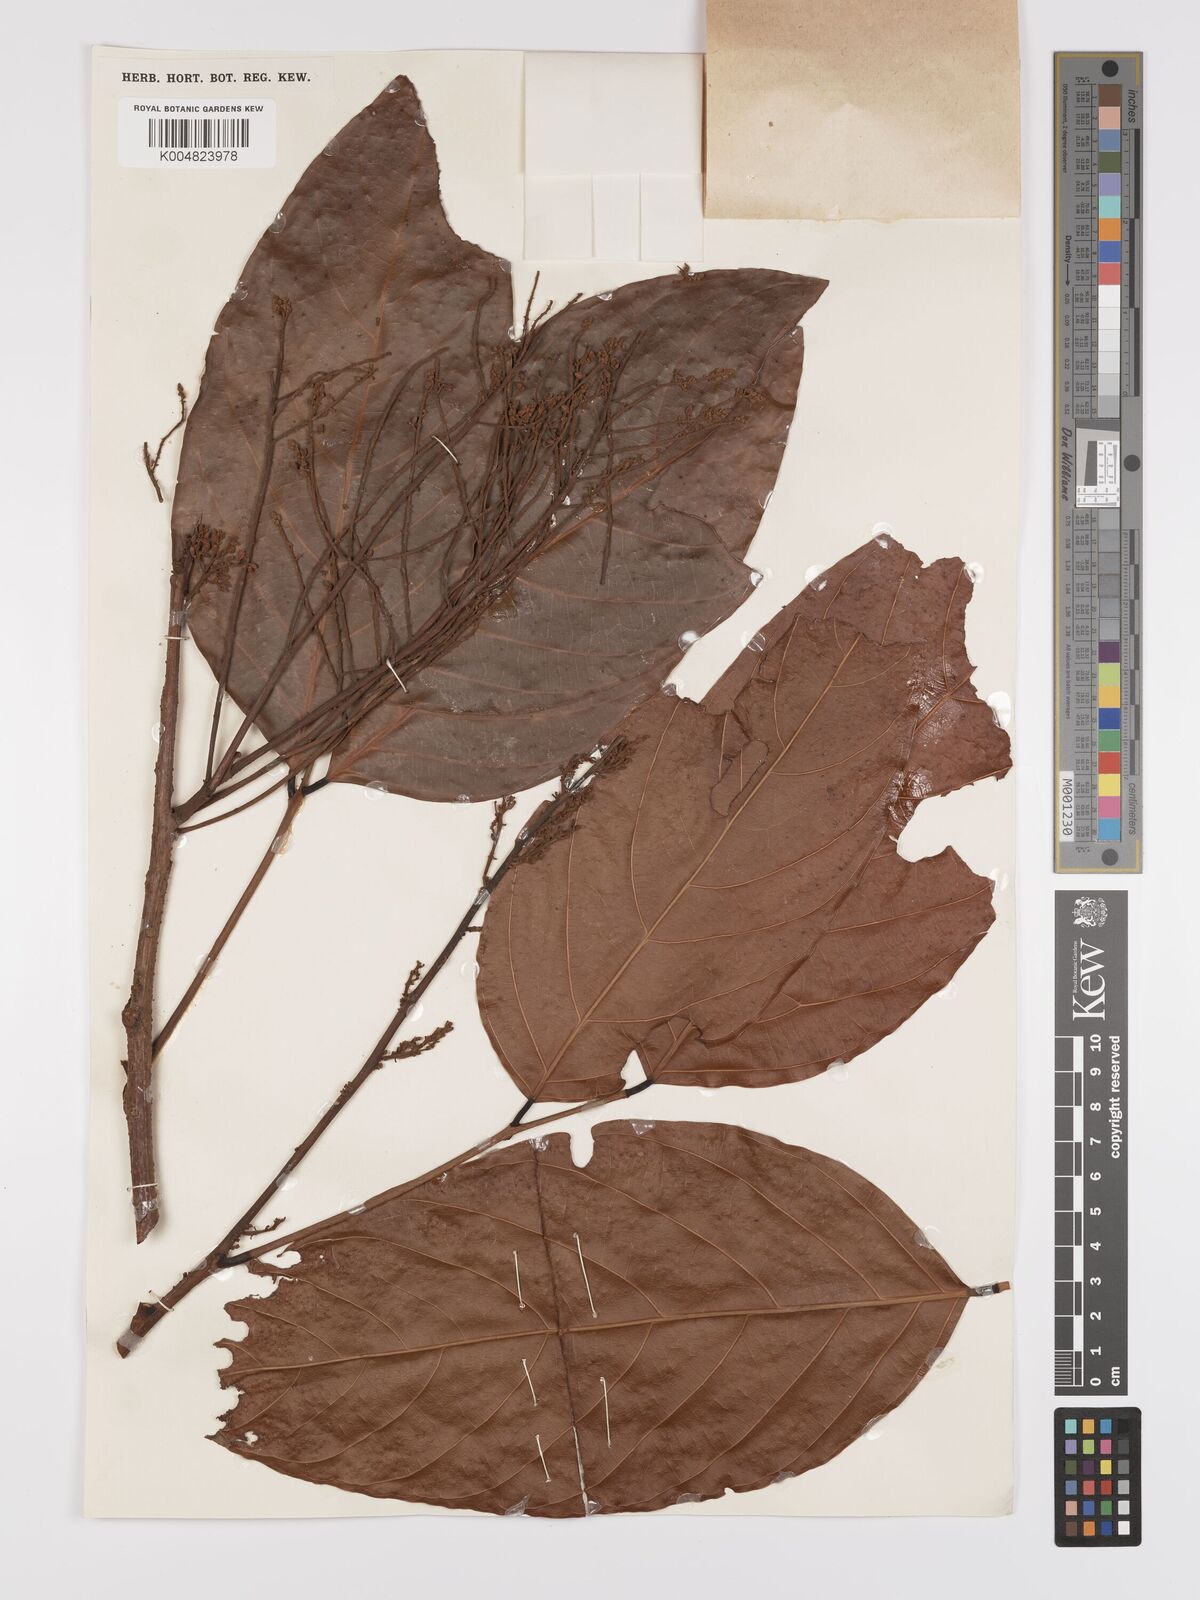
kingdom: Plantae
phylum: Tracheophyta
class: Magnoliopsida
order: Oxalidales
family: Connaraceae
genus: Connarus
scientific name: Connarus grandis
